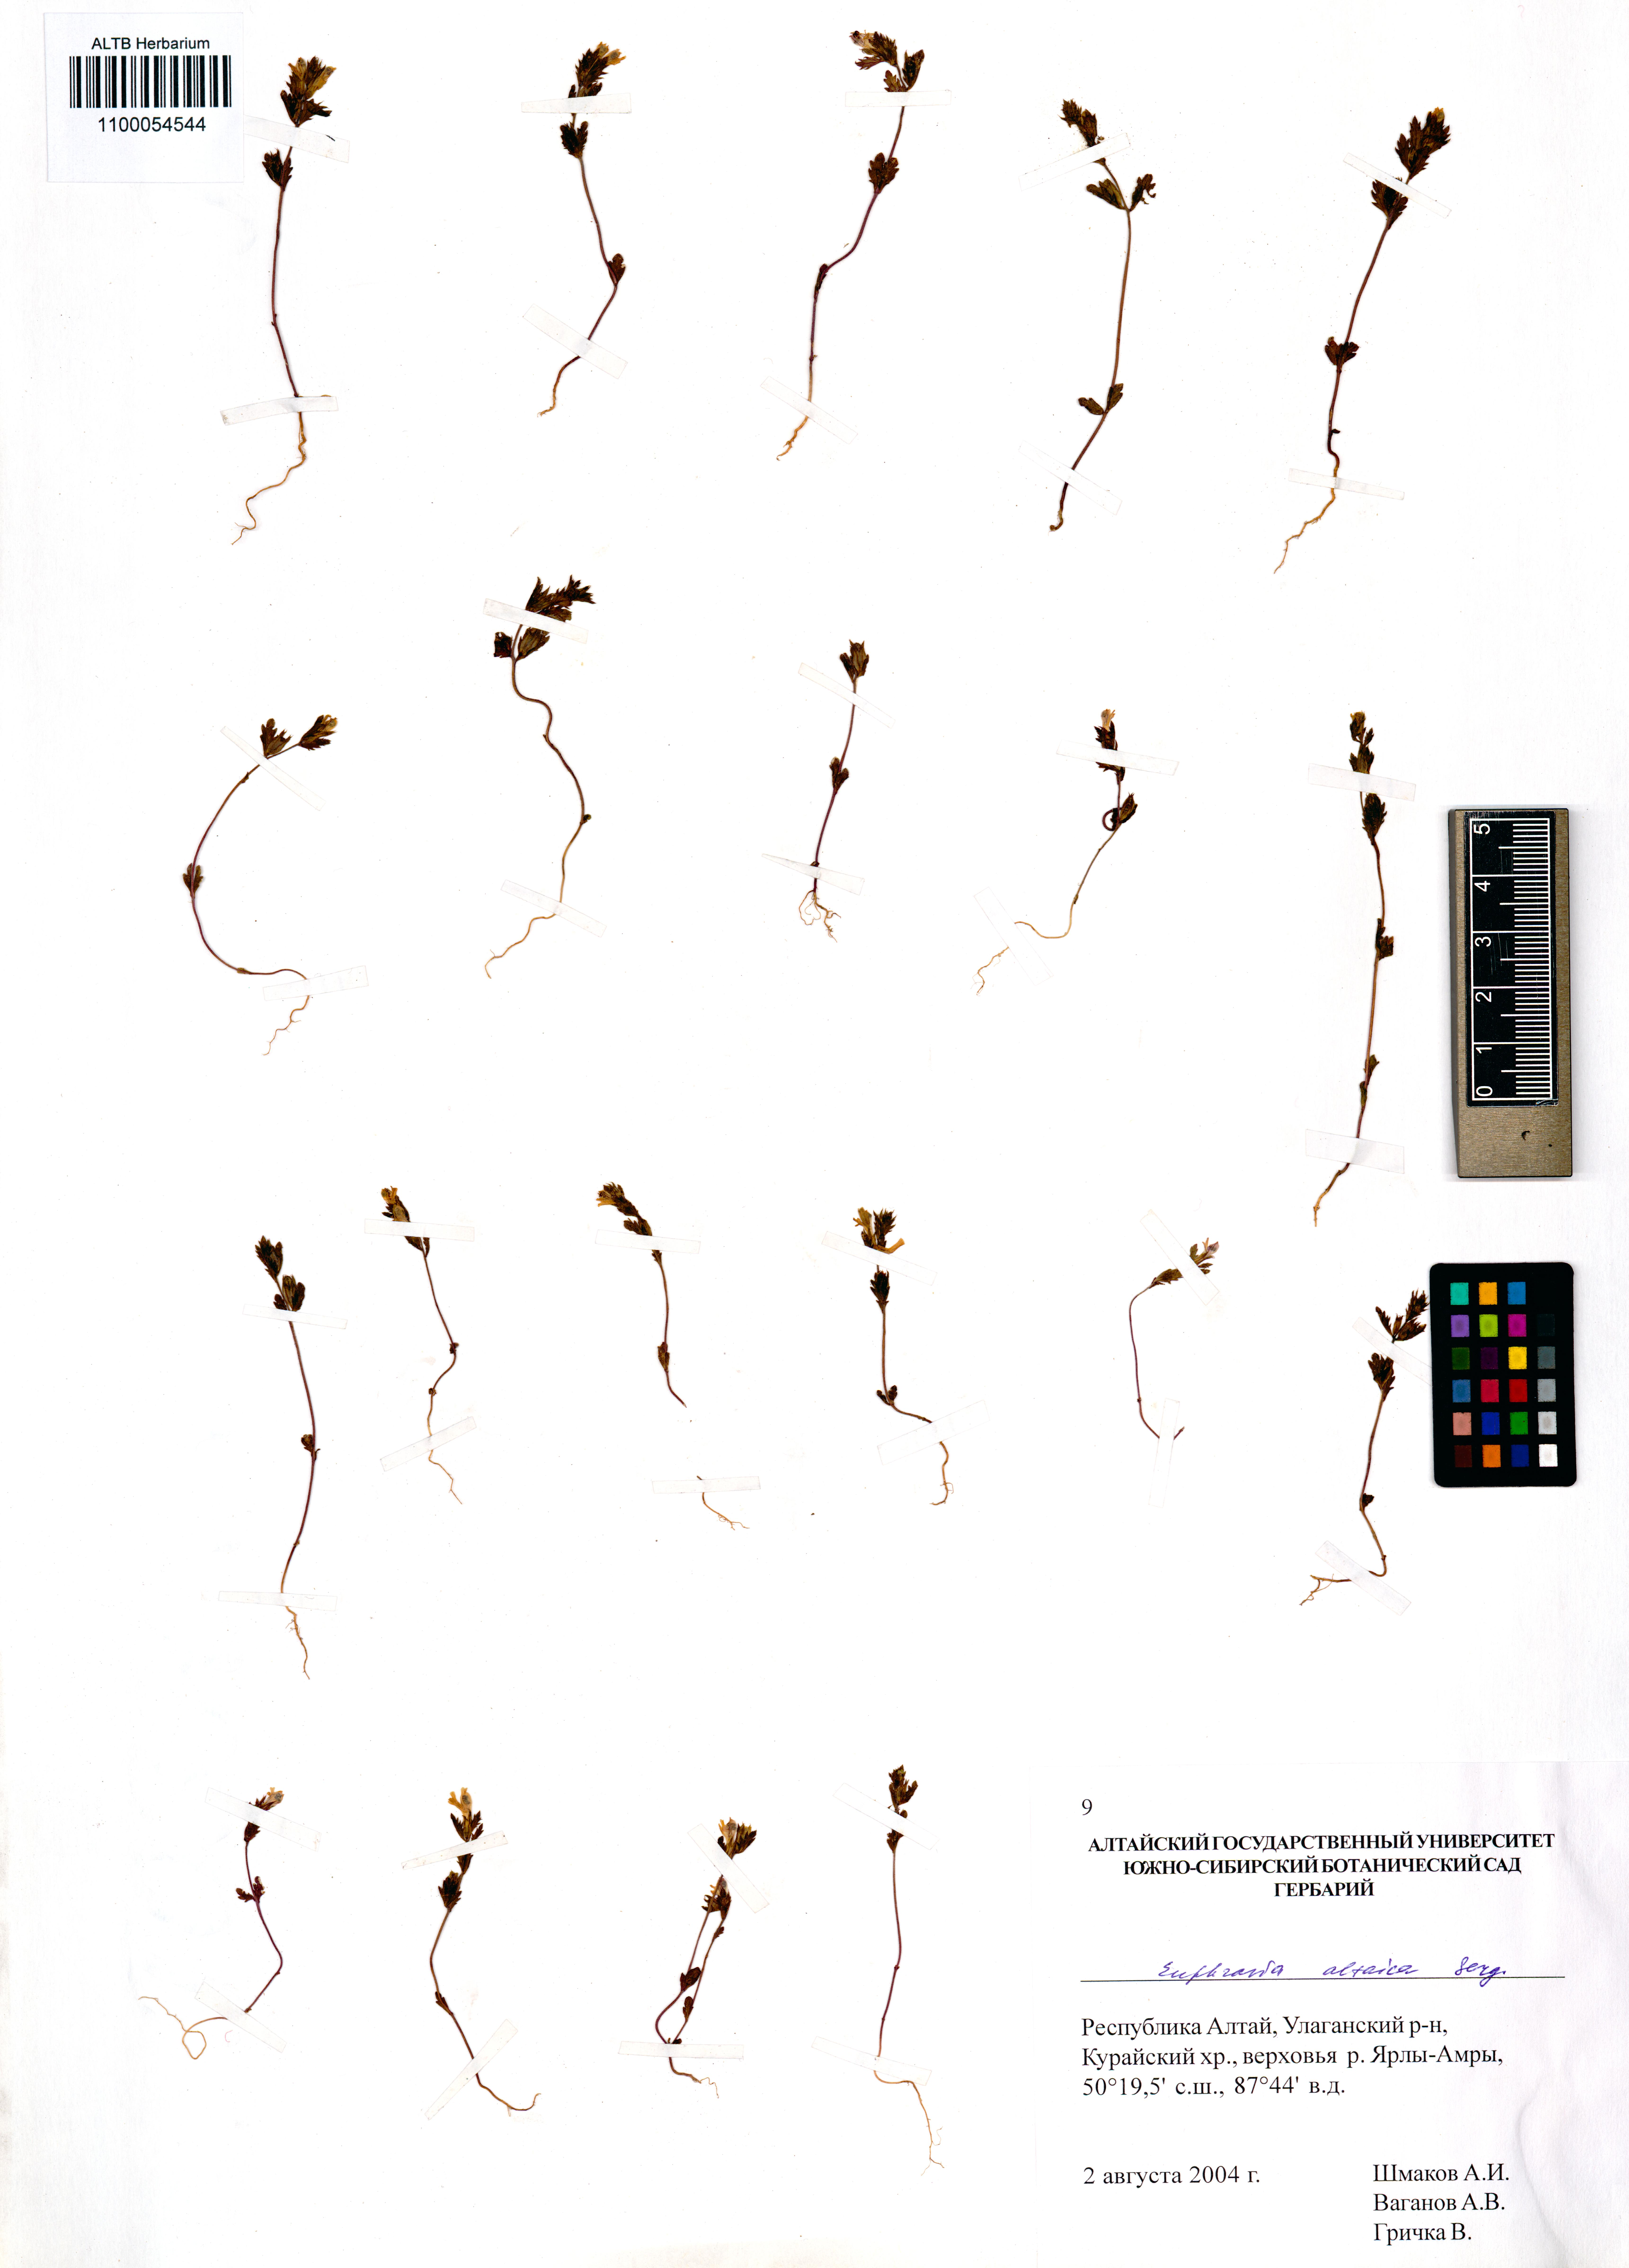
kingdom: Plantae
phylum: Tracheophyta
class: Magnoliopsida
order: Lamiales
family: Orobanchaceae
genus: Euphrasia
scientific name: Euphrasia altaica
